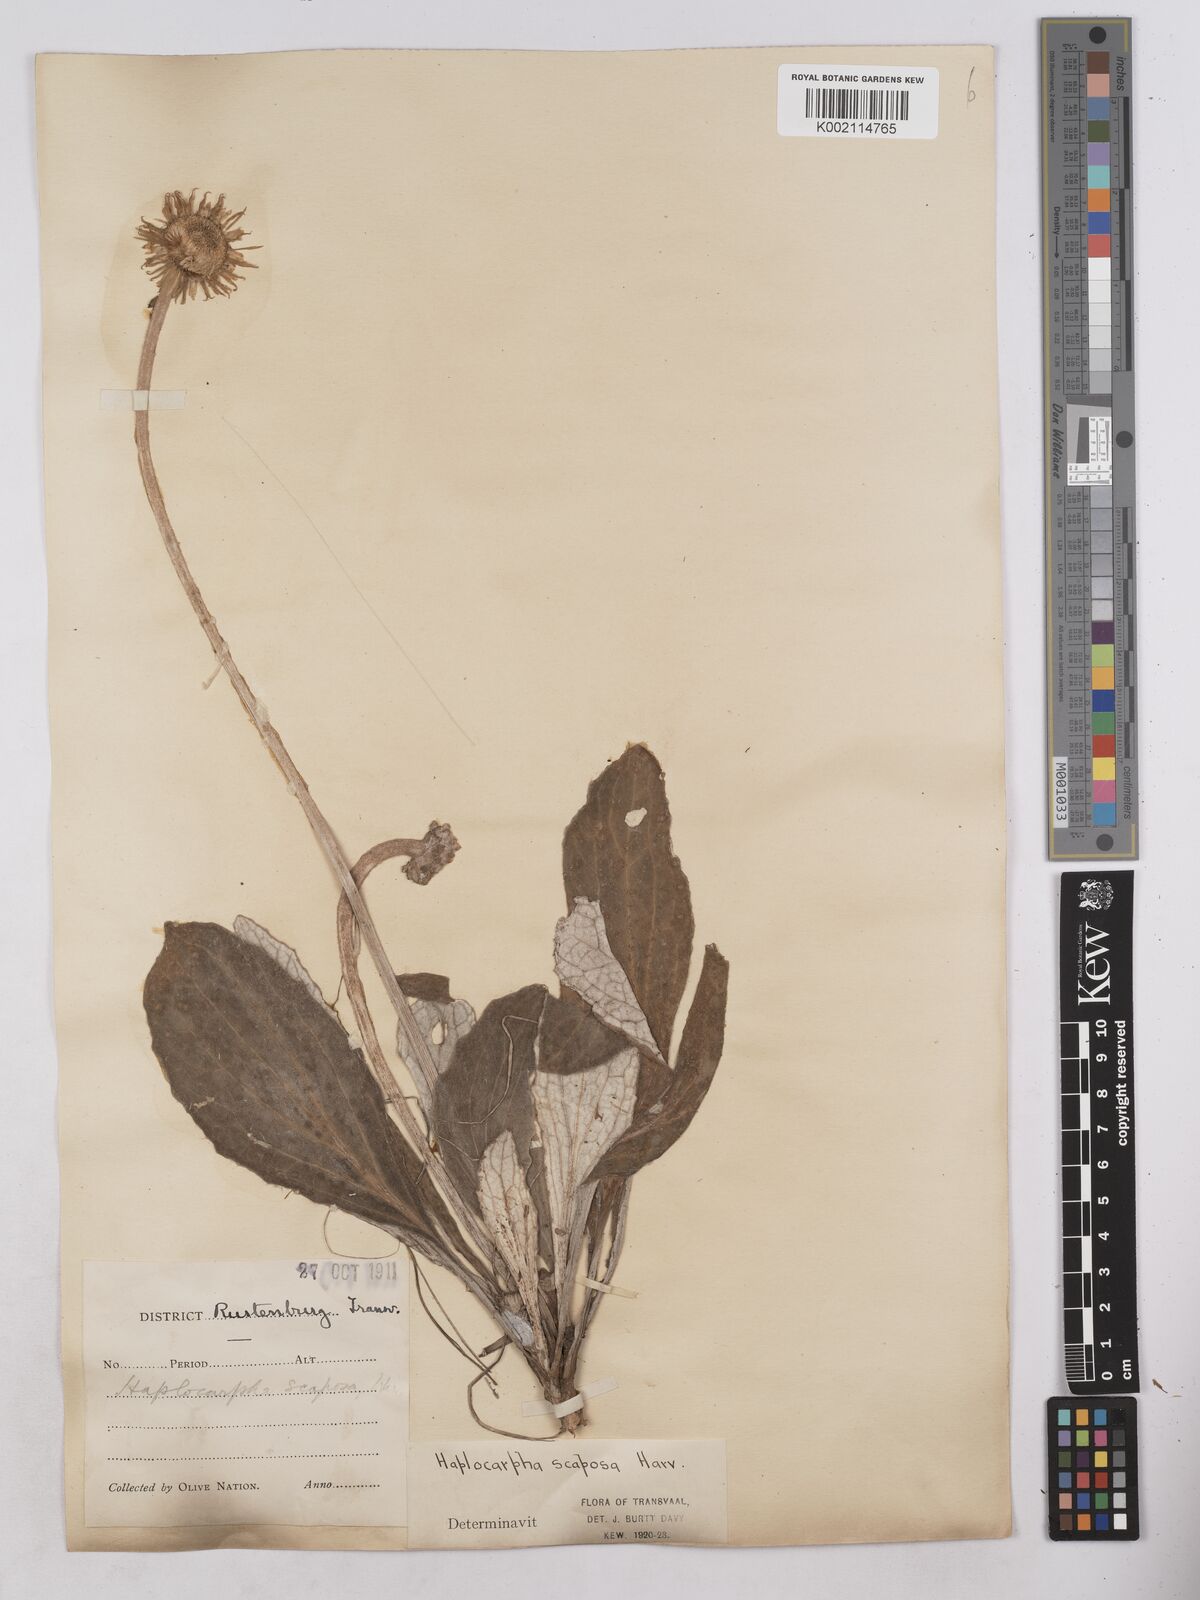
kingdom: Plantae
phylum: Tracheophyta
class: Magnoliopsida
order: Asterales
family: Asteraceae
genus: Haplocarpha
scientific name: Haplocarpha scaposa
